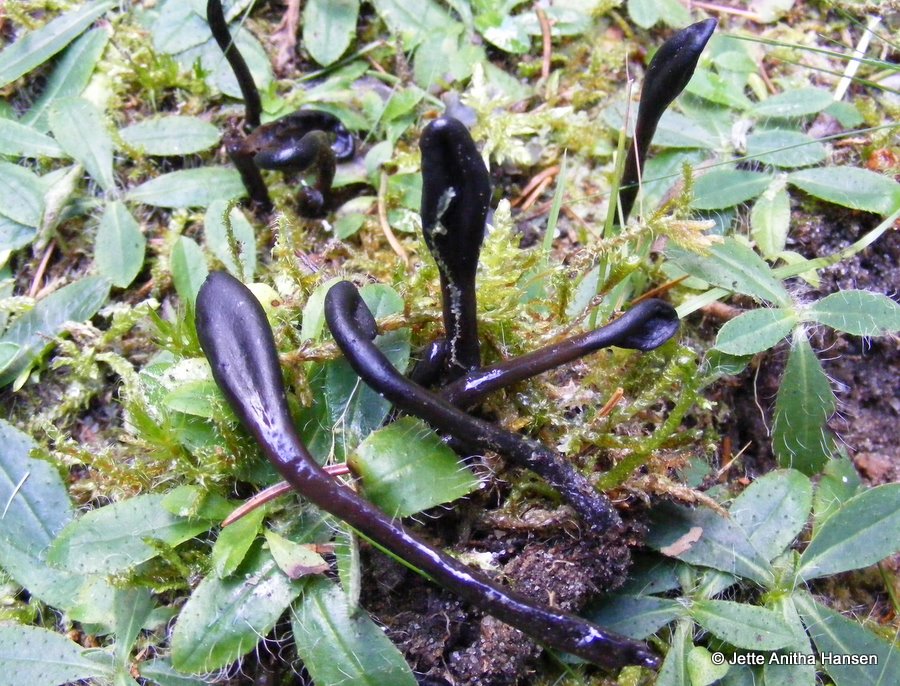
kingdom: Fungi
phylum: Ascomycota
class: Geoglossomycetes
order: Geoglossales
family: Geoglossaceae
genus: Glutinoglossum
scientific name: Glutinoglossum glutinosum
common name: slimet jordtunge
